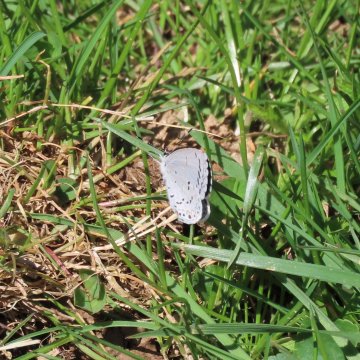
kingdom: Animalia
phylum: Arthropoda
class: Insecta
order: Lepidoptera
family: Lycaenidae
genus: Cyaniris
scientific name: Cyaniris neglecta
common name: Summer Azure
